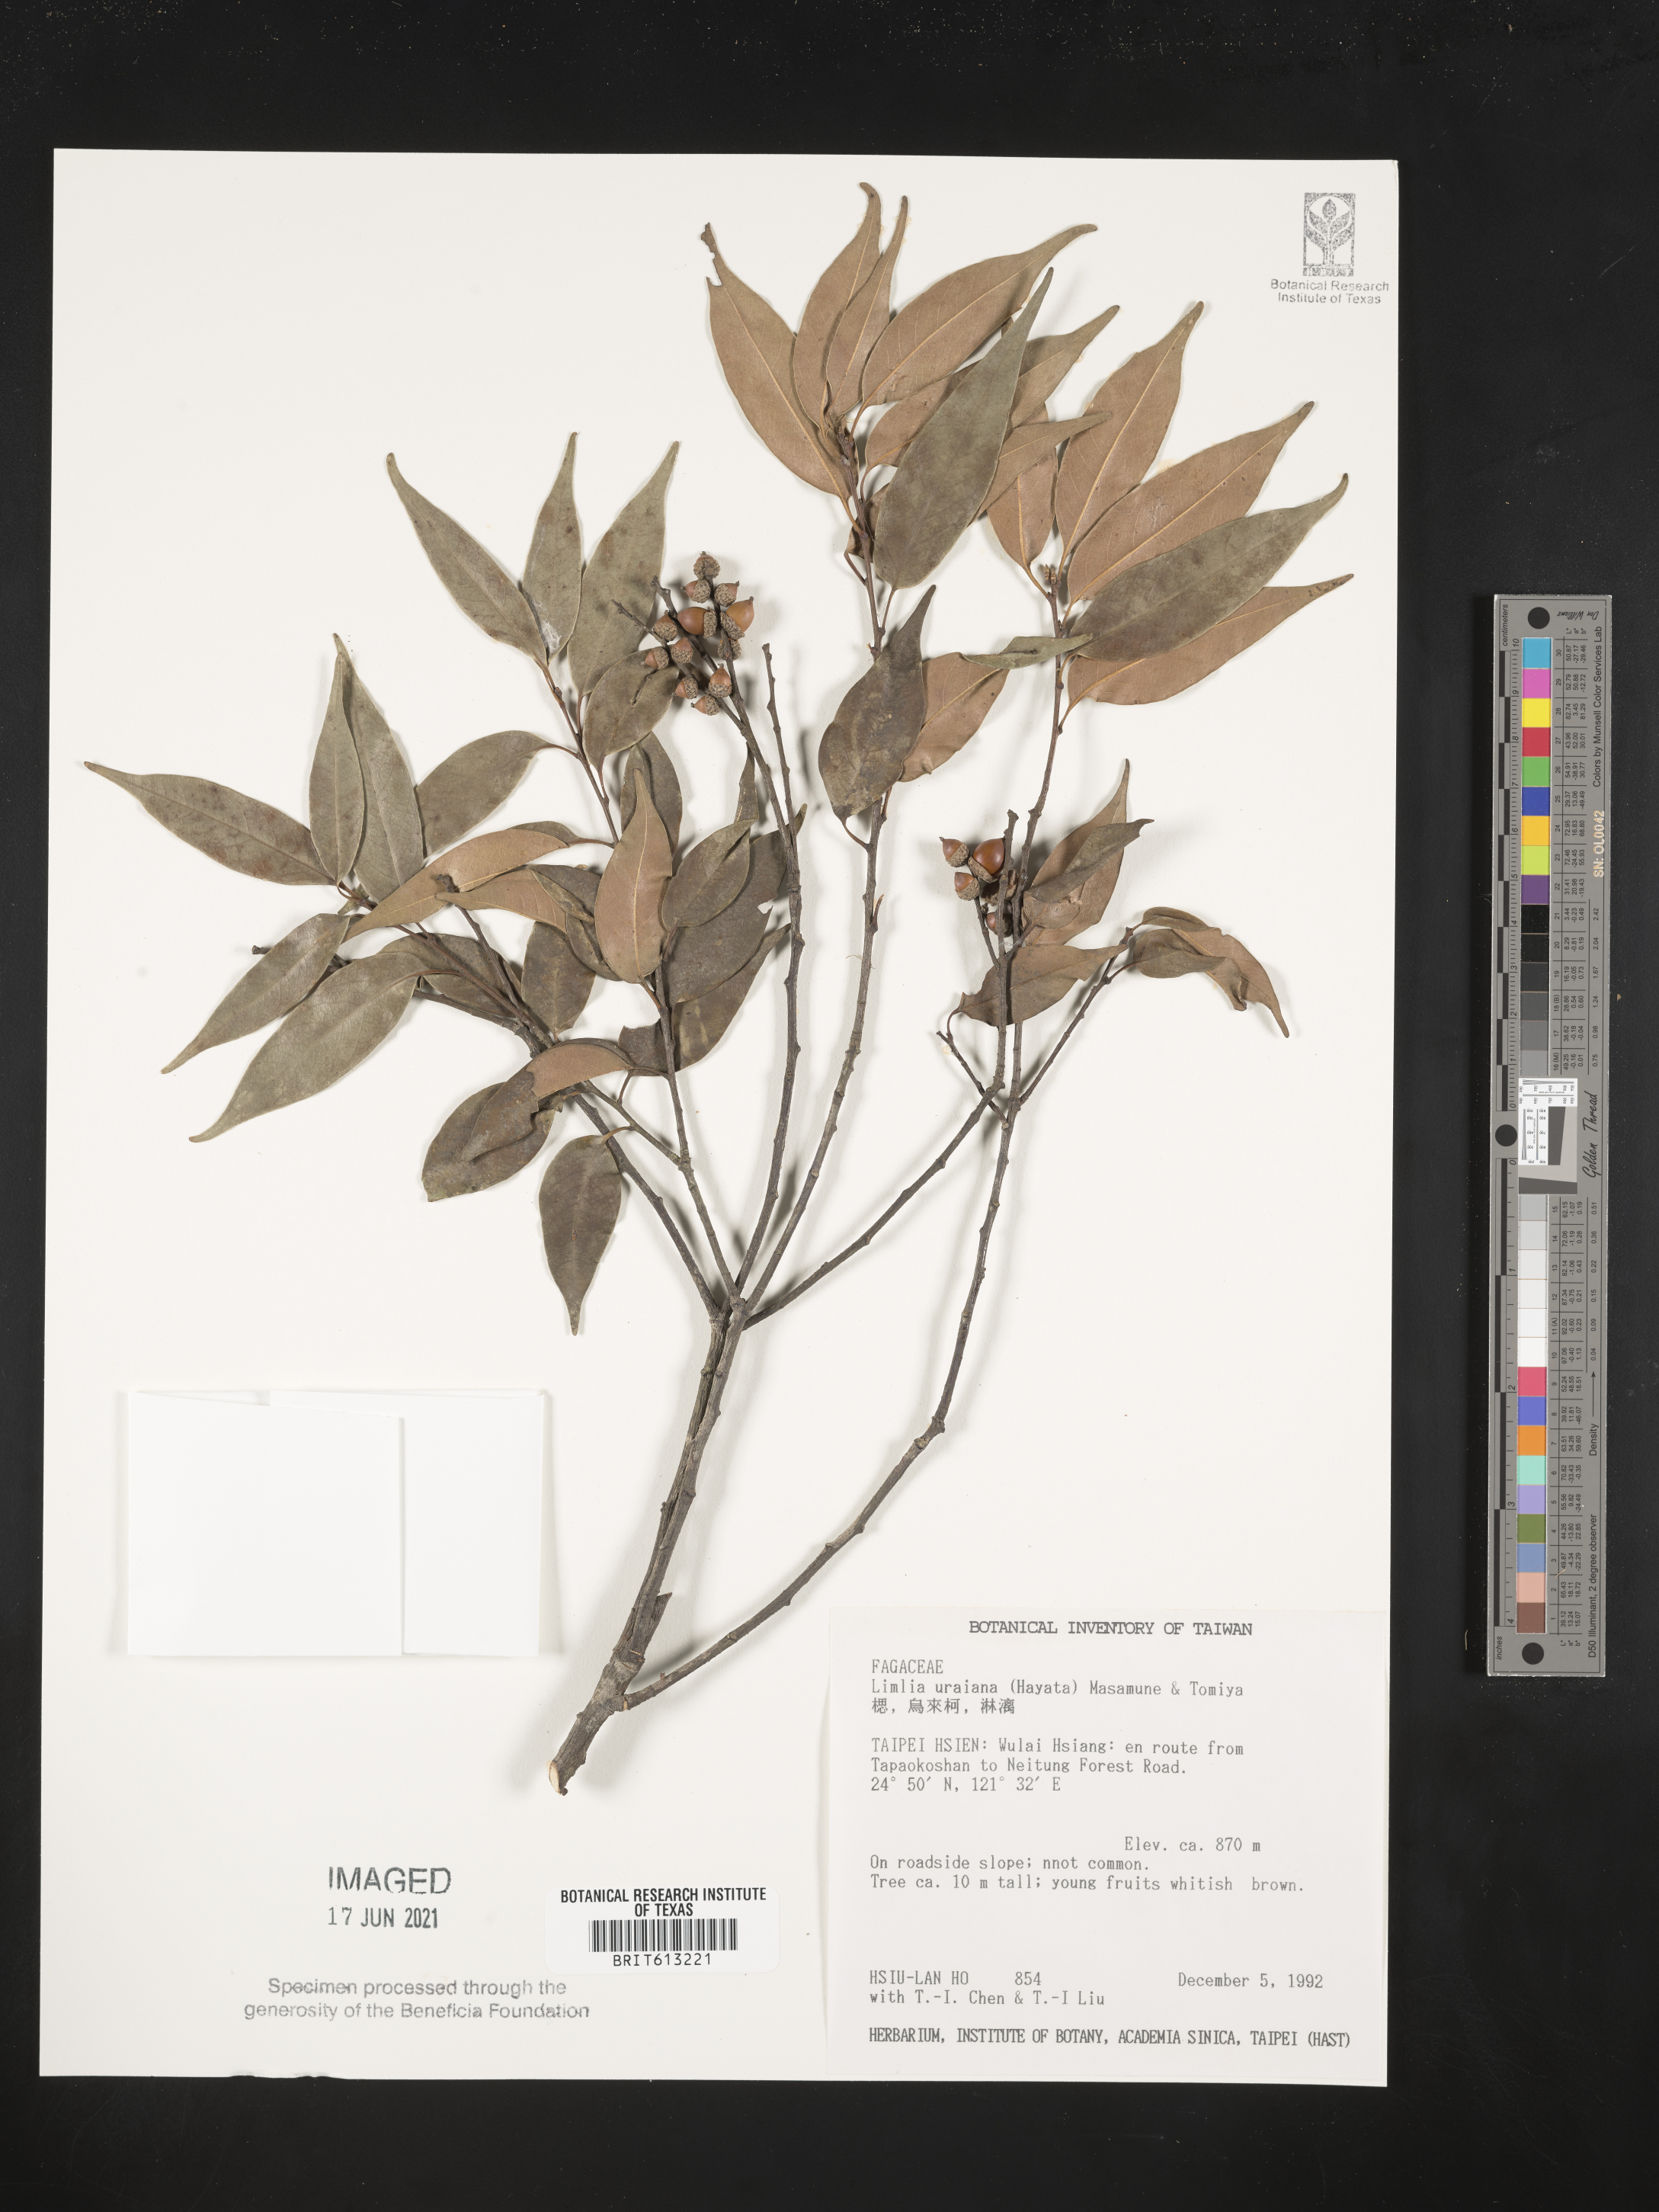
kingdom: Plantae
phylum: Tracheophyta
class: Magnoliopsida
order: Fagales
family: Fagaceae
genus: Lithocarpus
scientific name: Lithocarpus uraianus
